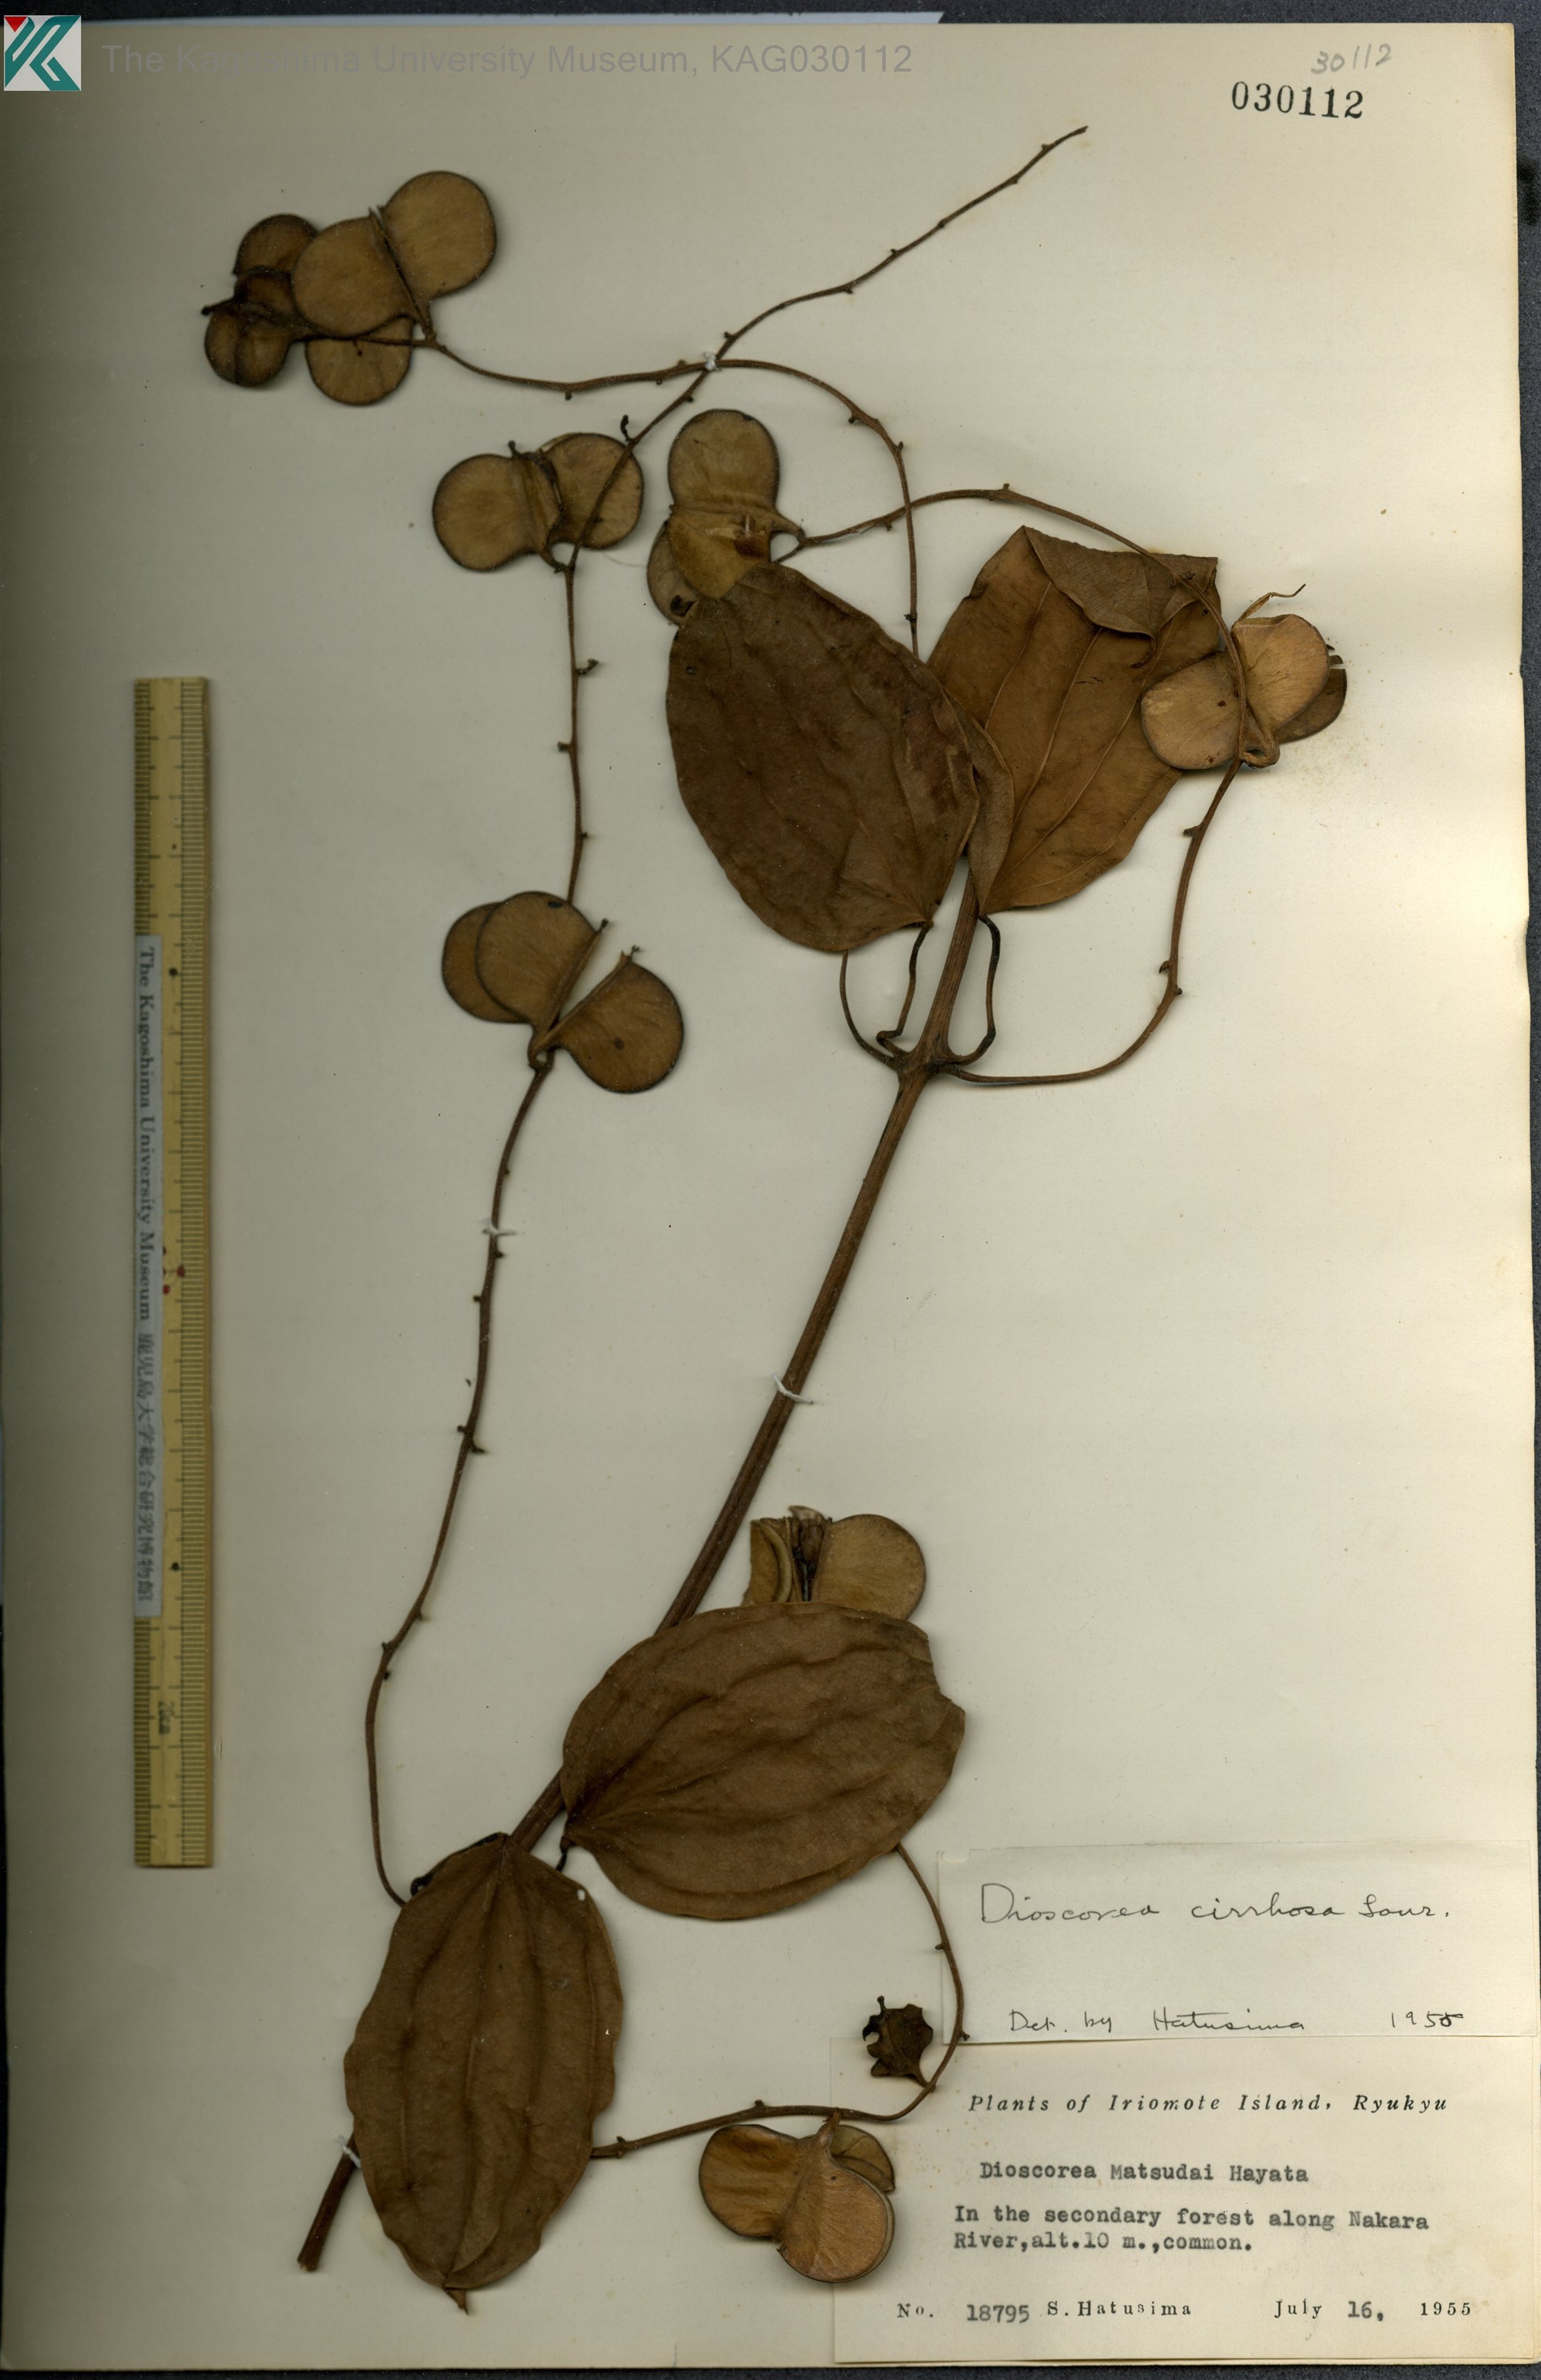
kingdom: Plantae
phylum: Tracheophyta
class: Liliopsida
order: Dioscoreales
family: Dioscoreaceae
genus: Dioscorea
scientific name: Dioscorea cirrhosa
